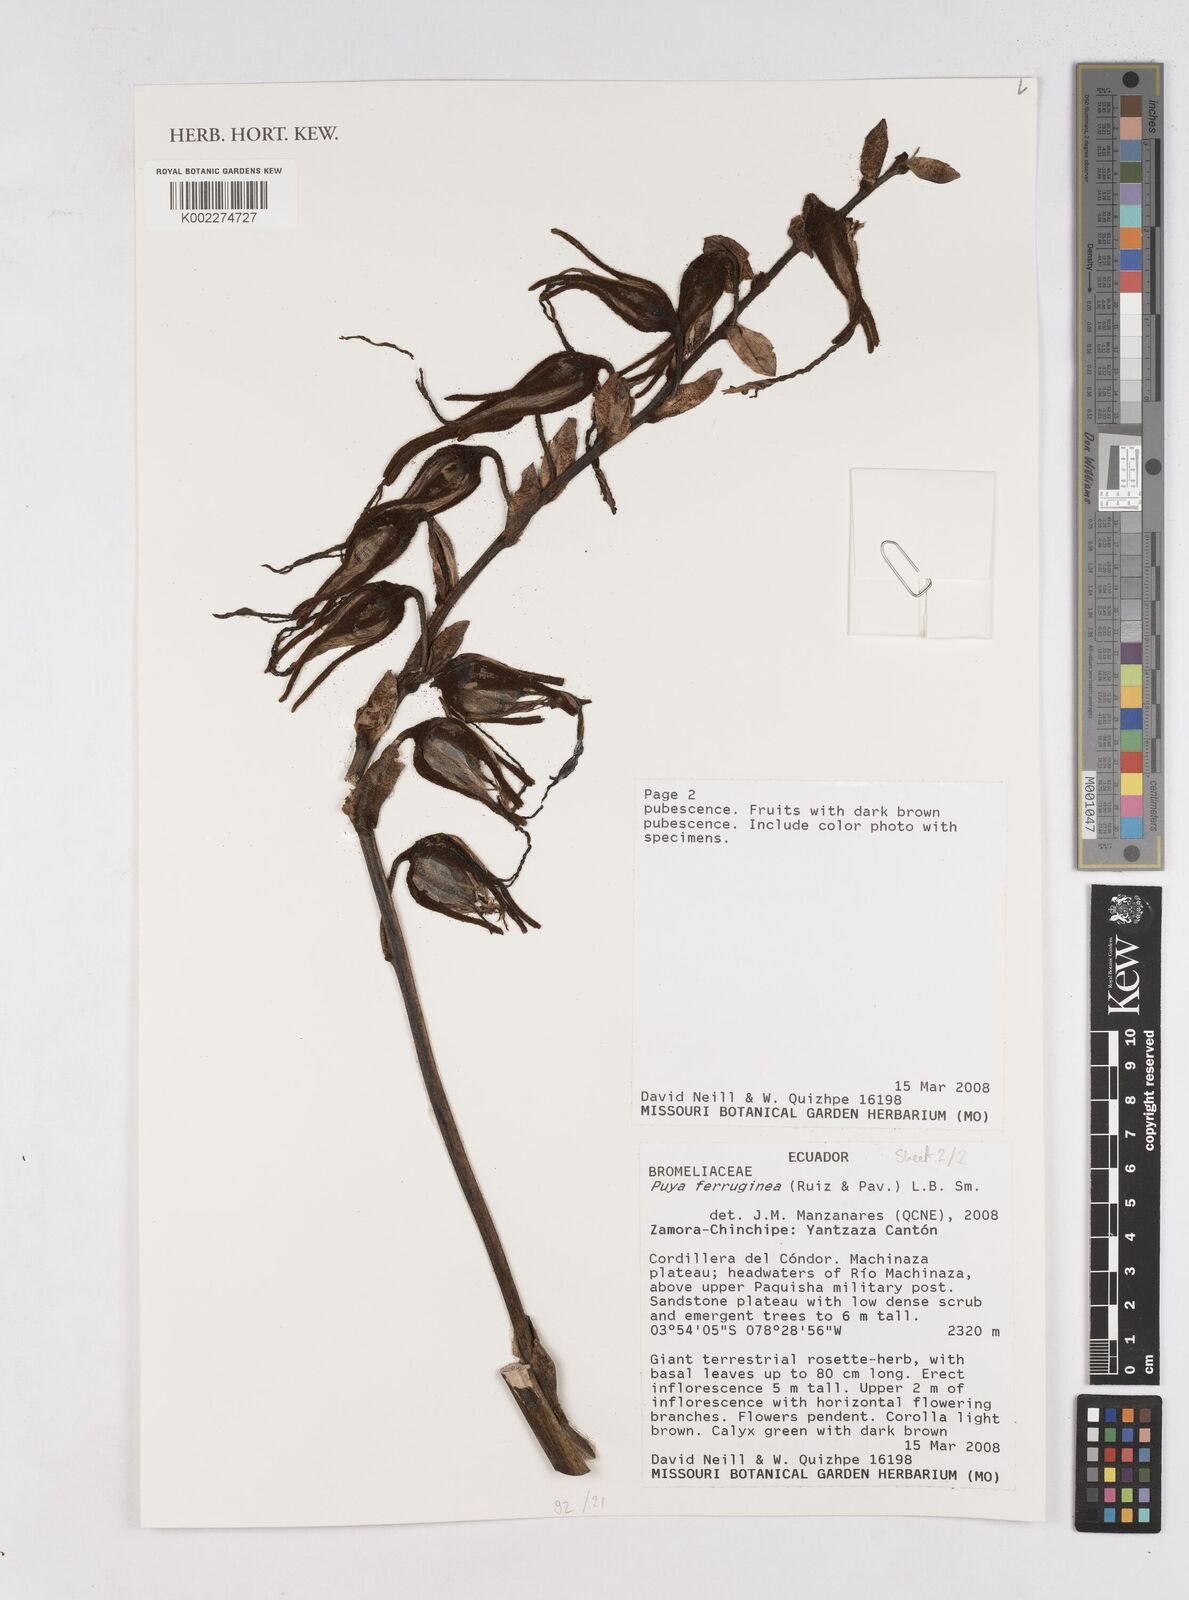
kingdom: Plantae
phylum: Tracheophyta
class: Liliopsida
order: Poales
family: Bromeliaceae
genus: Puya
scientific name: Puya ferruginea
